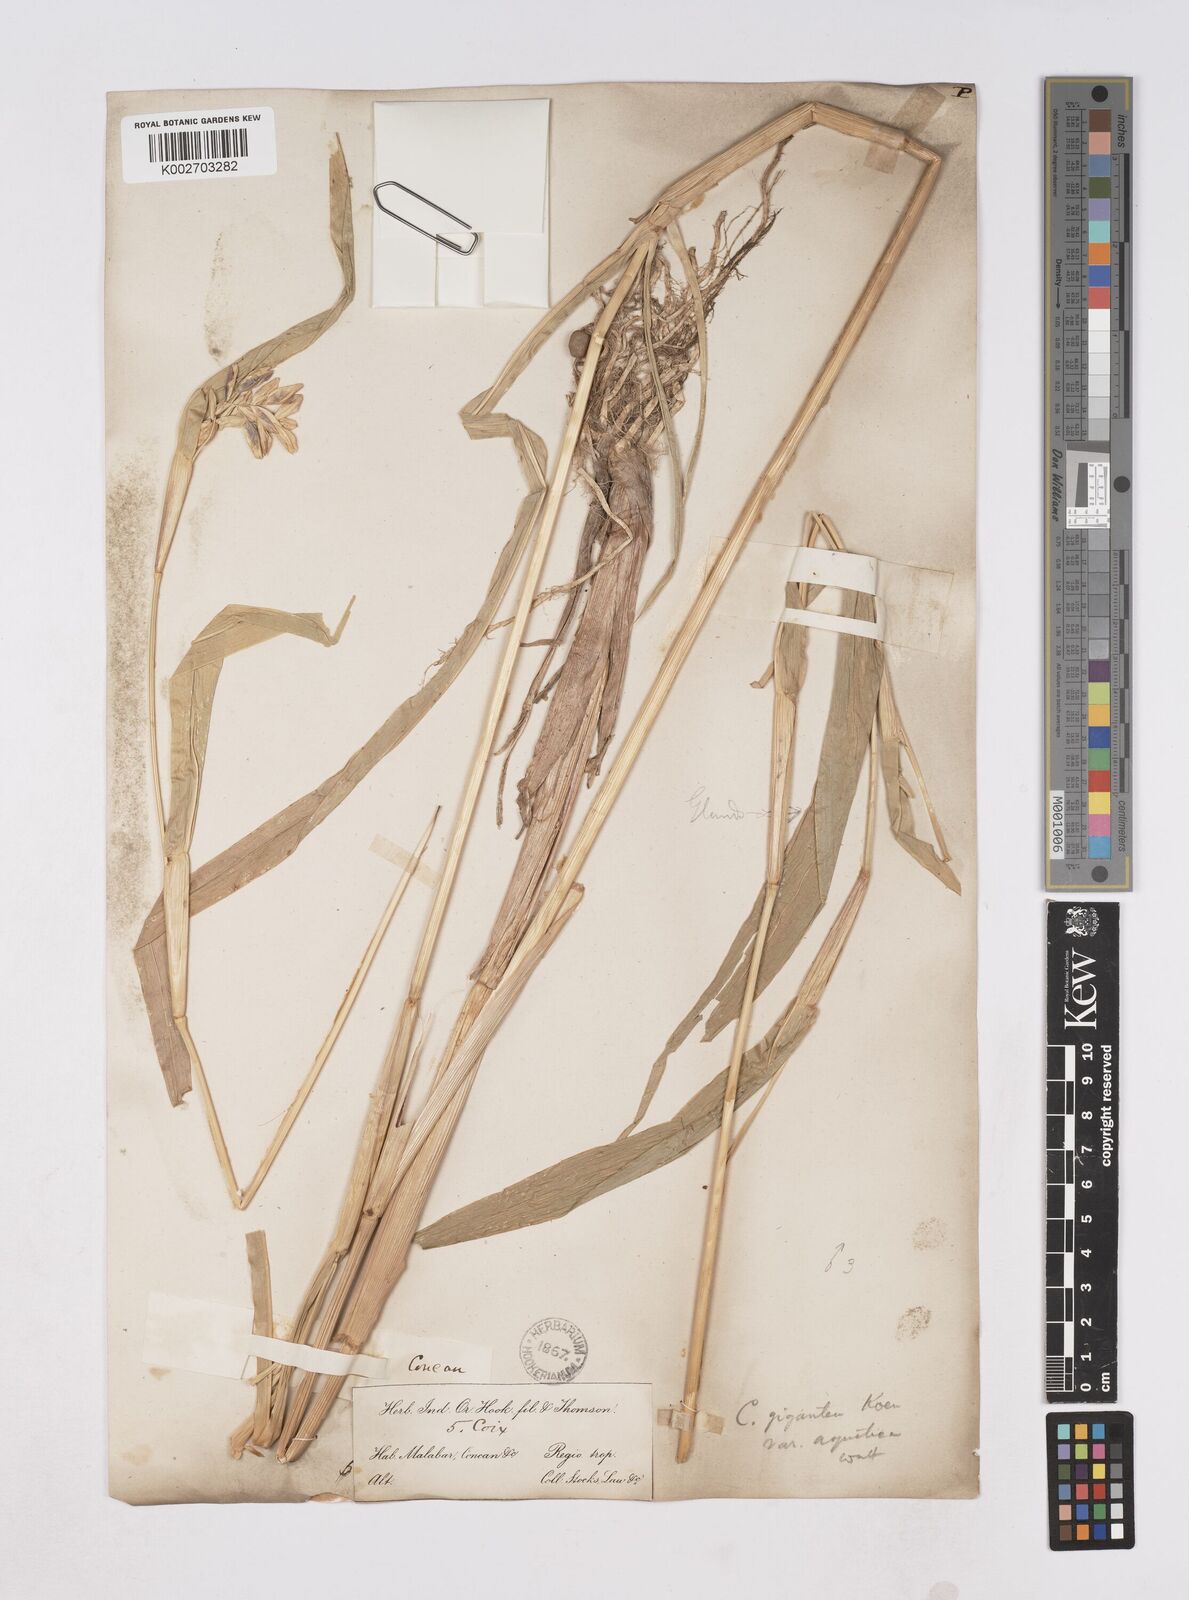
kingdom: Plantae
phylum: Tracheophyta
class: Liliopsida
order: Poales
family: Poaceae
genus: Coix
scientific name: Coix aquatica
